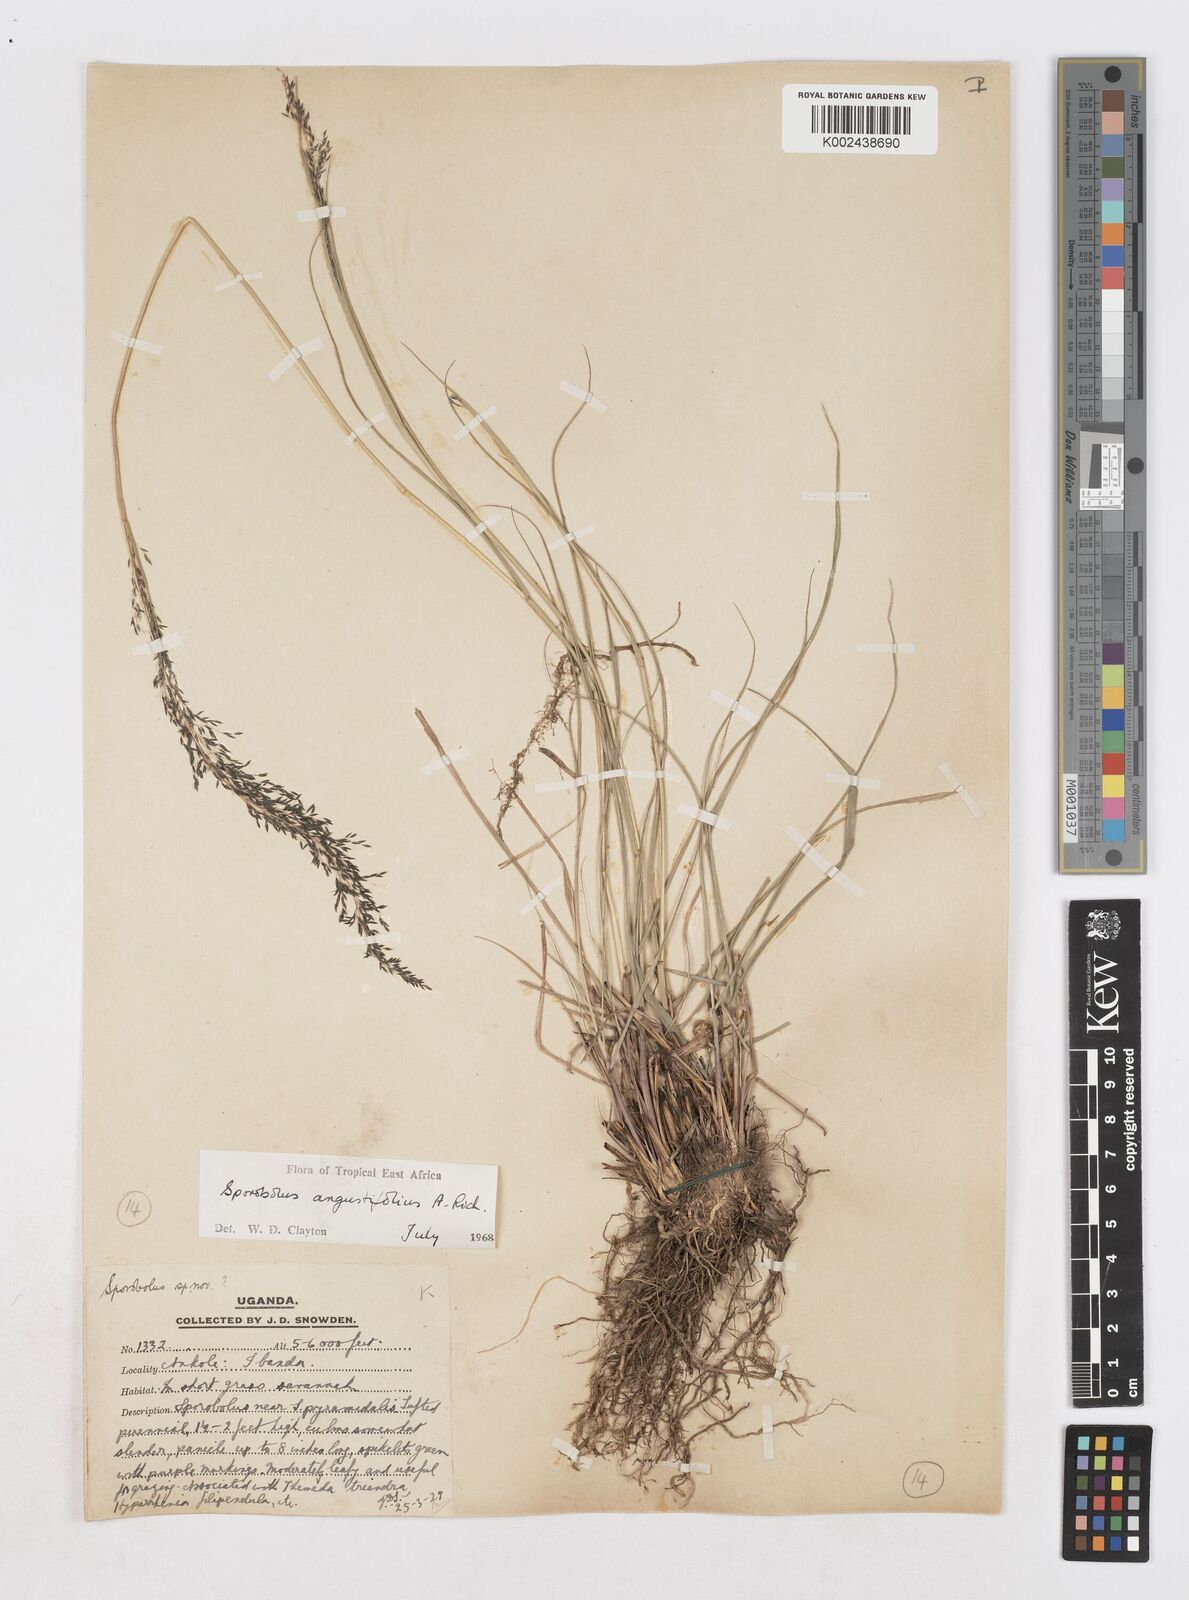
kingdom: Plantae
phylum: Tracheophyta
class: Liliopsida
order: Poales
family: Poaceae
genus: Sporobolus
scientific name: Sporobolus angustifolius
